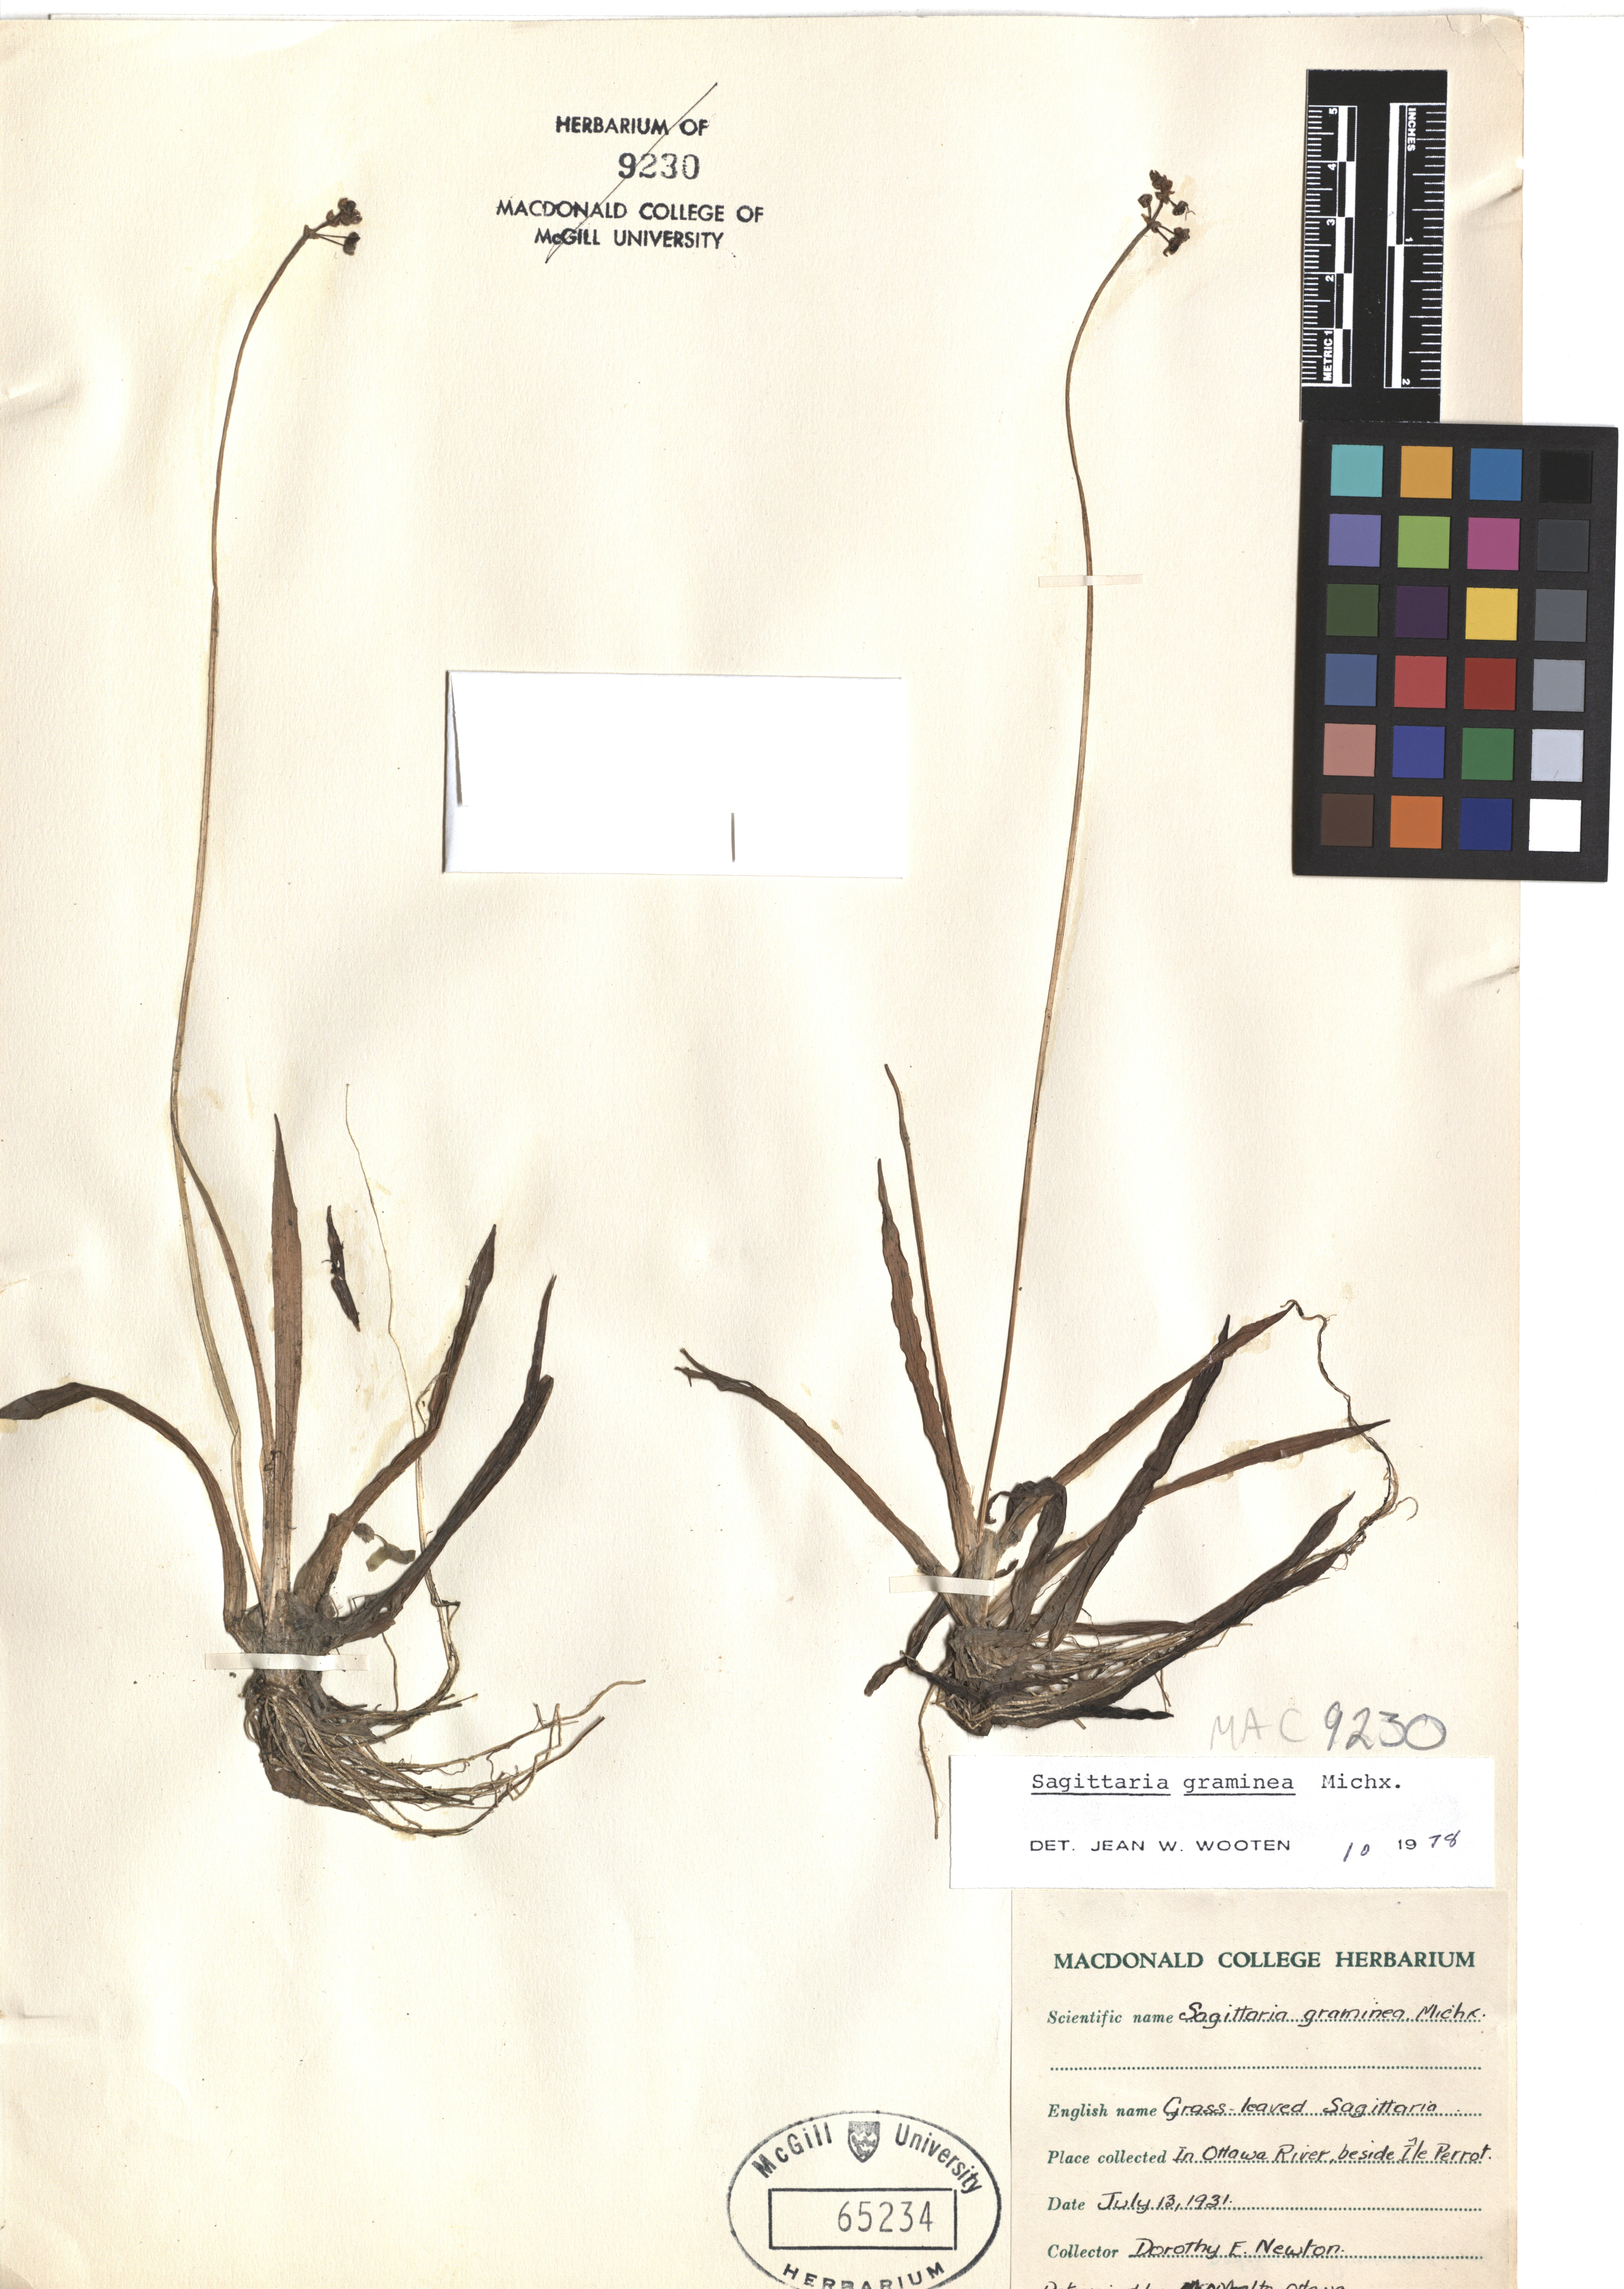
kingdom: Plantae
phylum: Tracheophyta
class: Liliopsida
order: Alismatales
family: Alismataceae
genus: Sagittaria
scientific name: Sagittaria graminea
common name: Grass-leaved arrowhead
